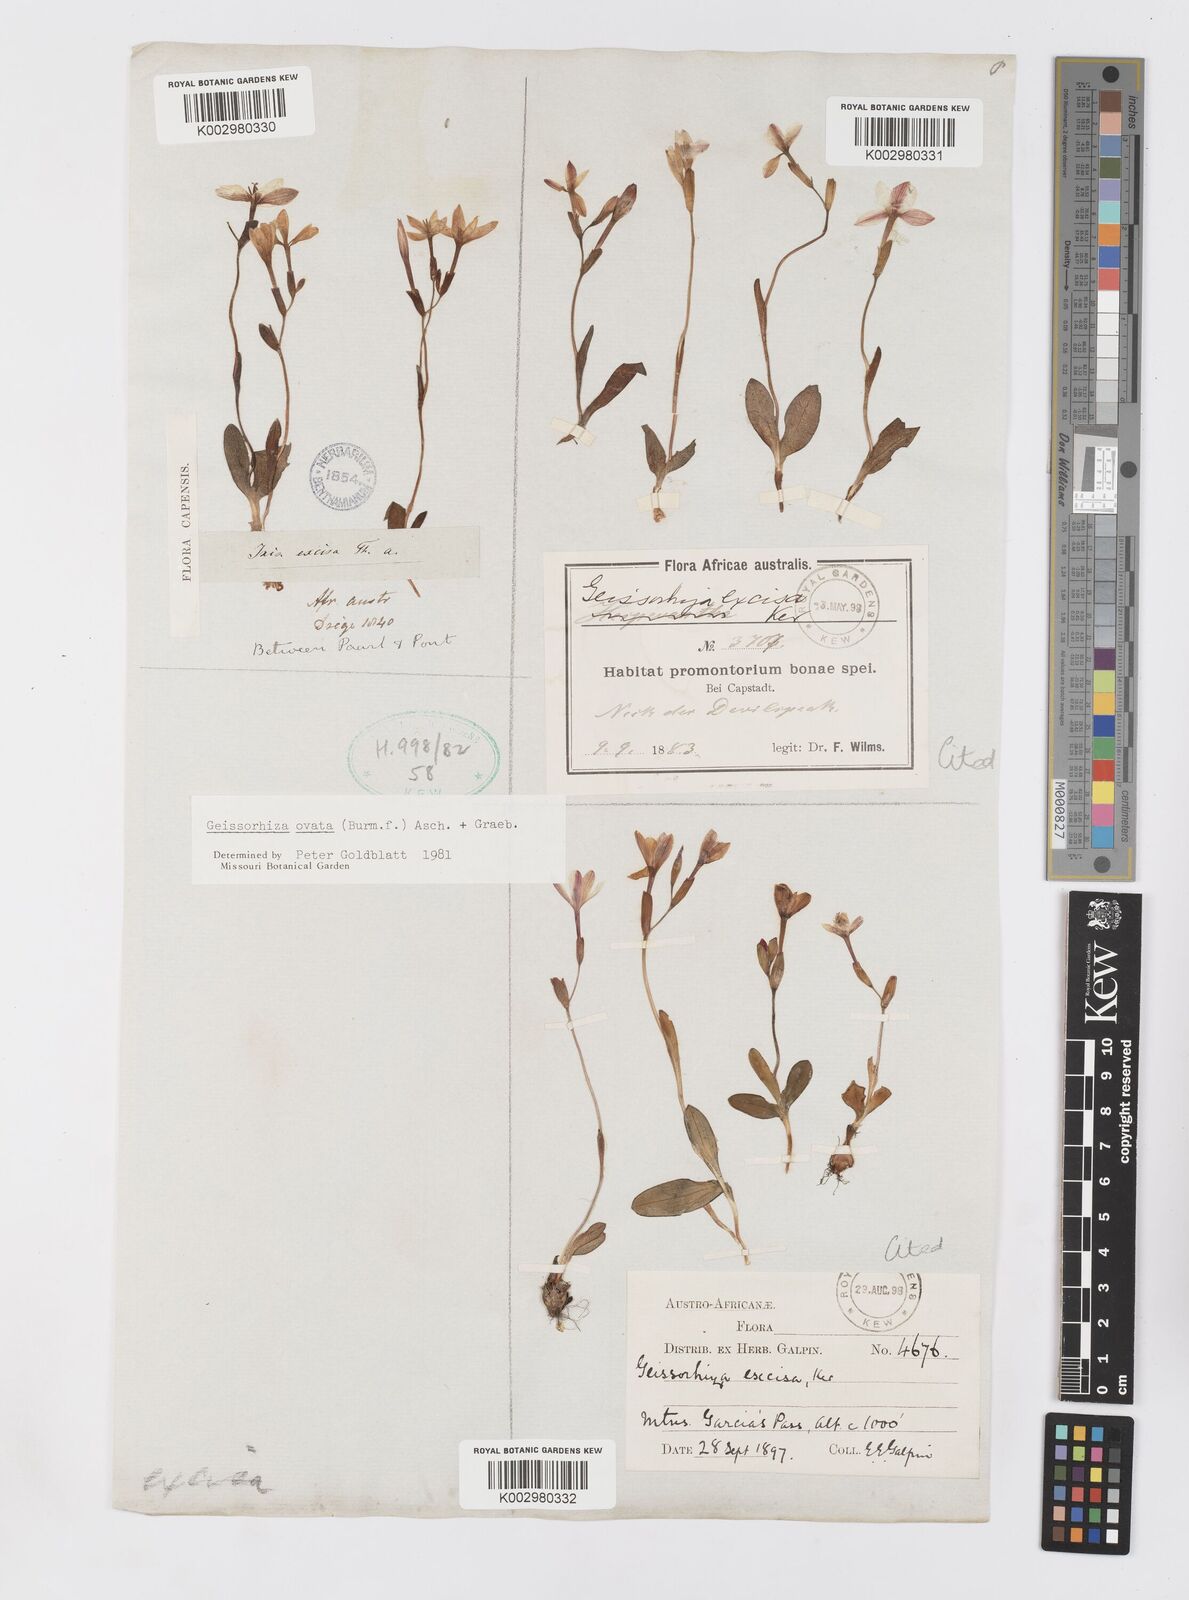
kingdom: Plantae
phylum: Tracheophyta
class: Liliopsida
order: Asparagales
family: Iridaceae
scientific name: Iridaceae
